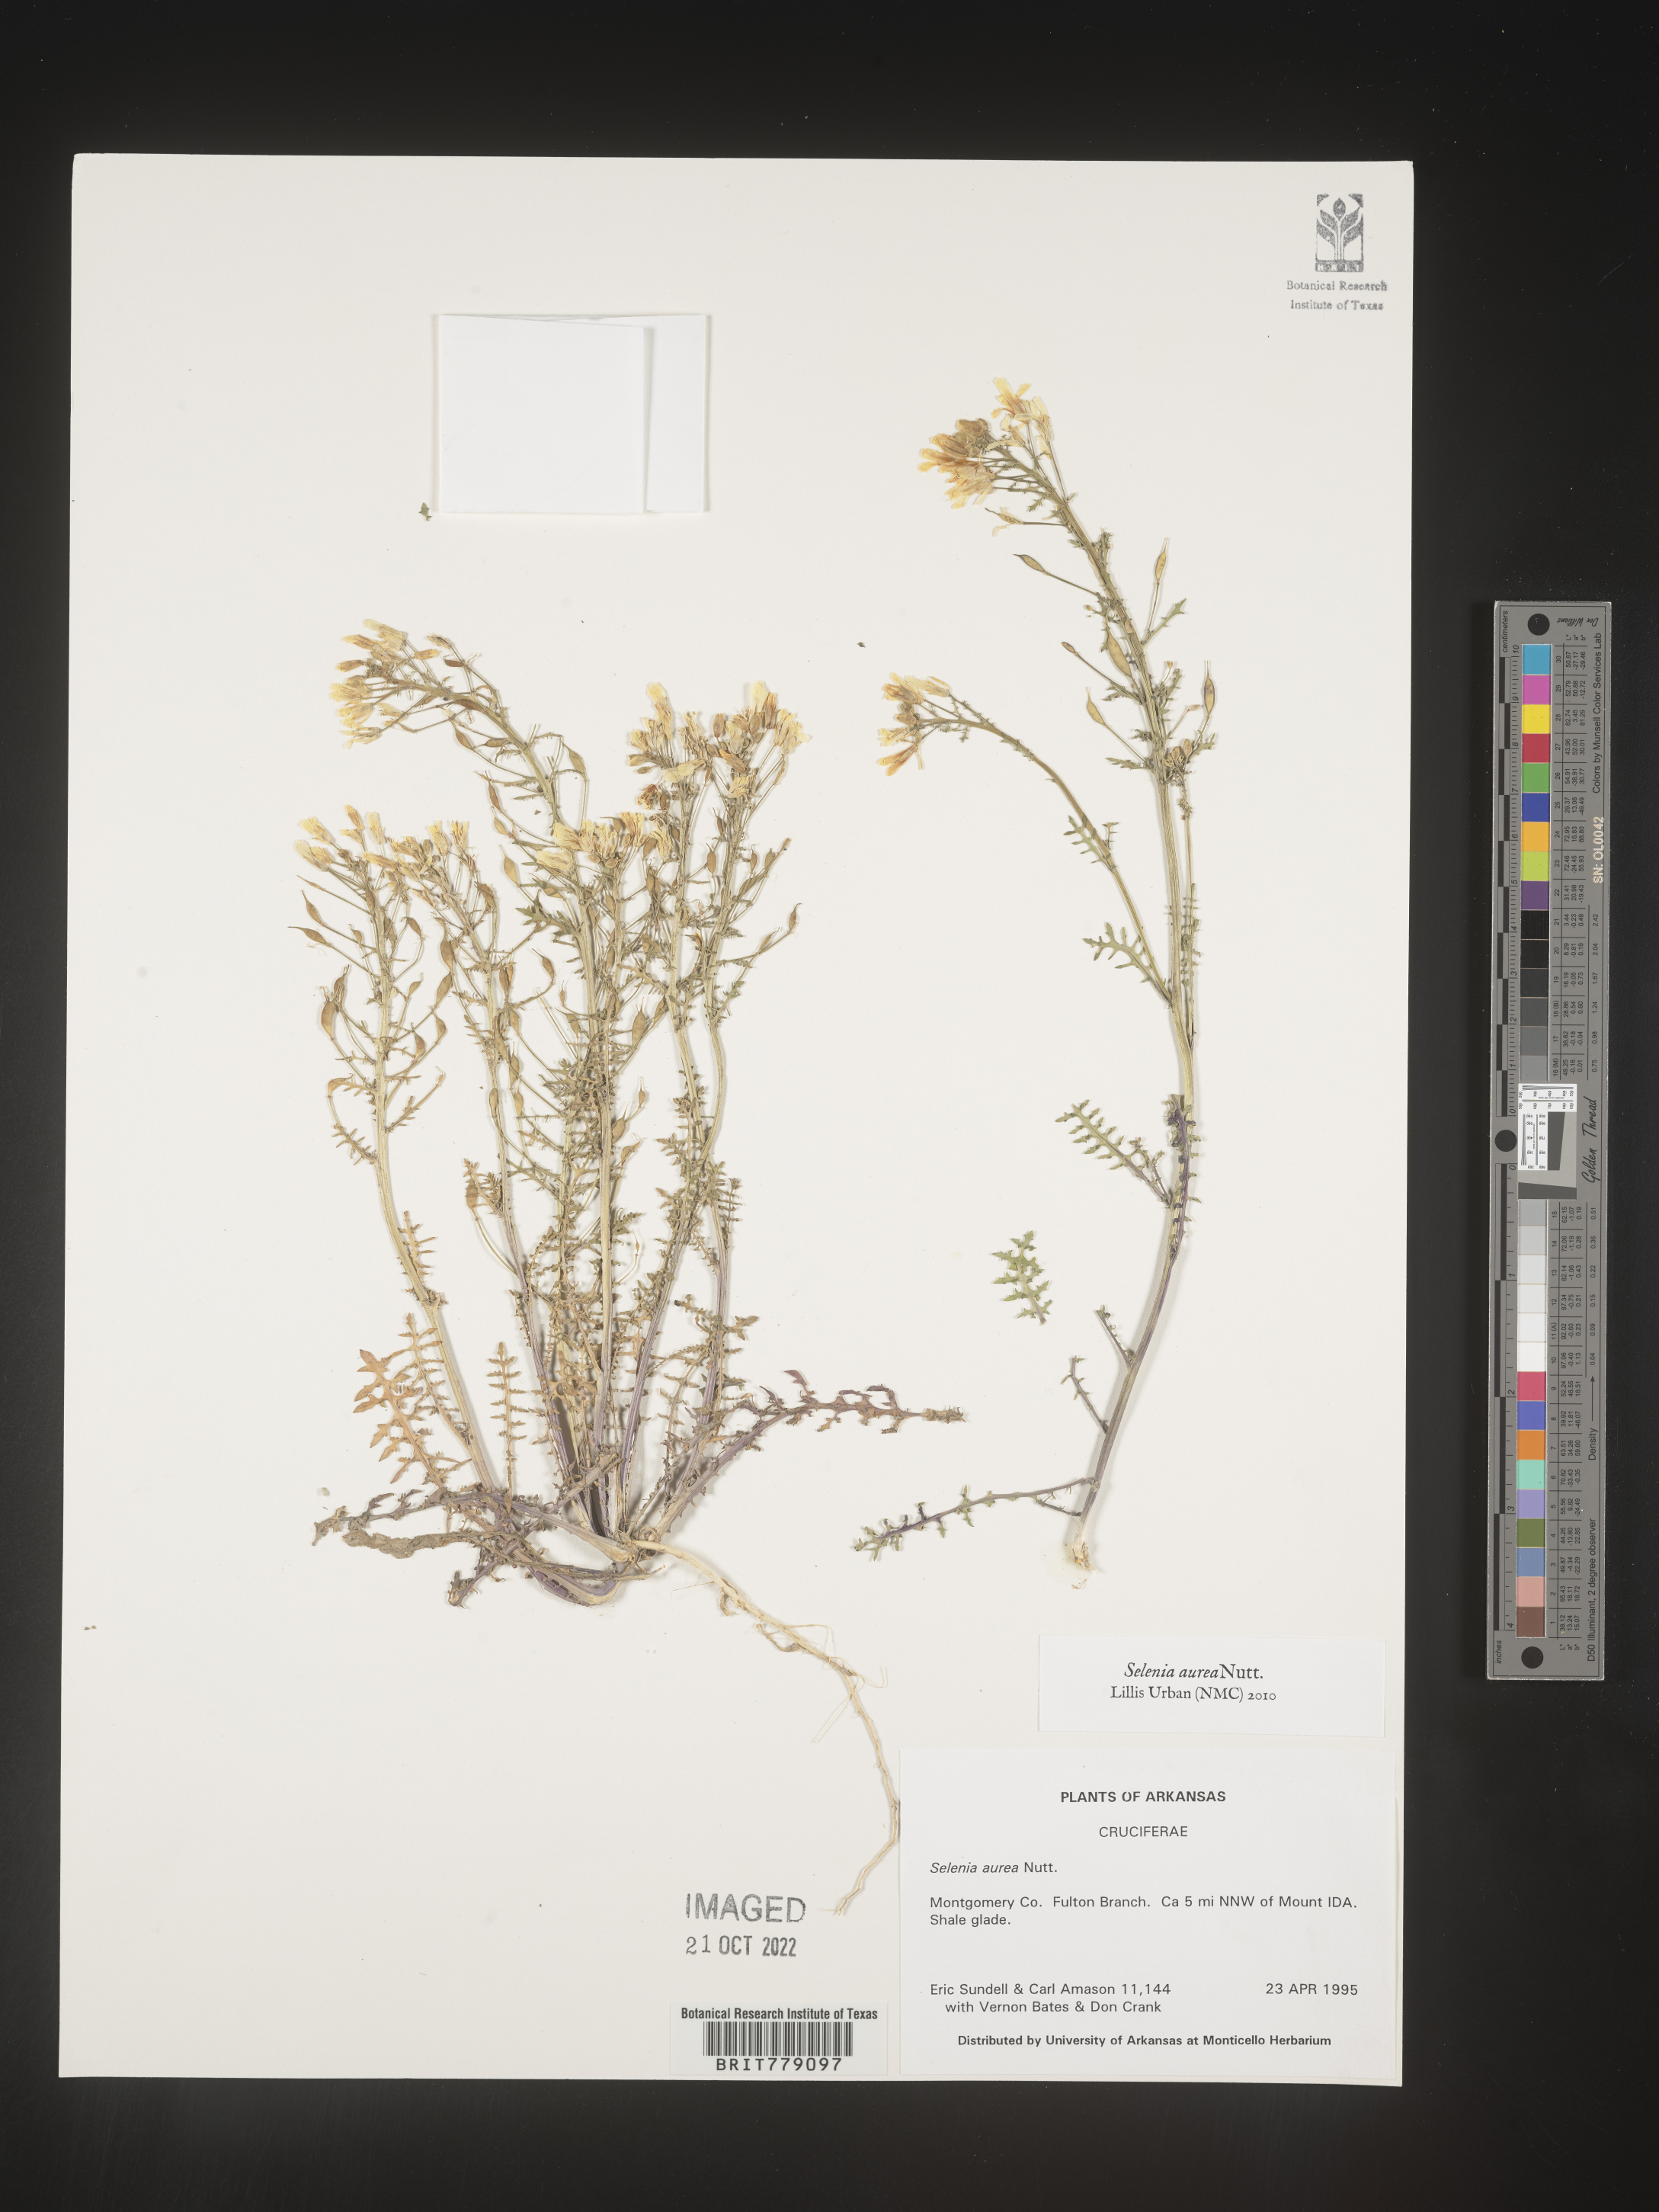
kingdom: Plantae
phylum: Tracheophyta
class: Magnoliopsida
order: Brassicales
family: Brassicaceae
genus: Selenia
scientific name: Selenia
